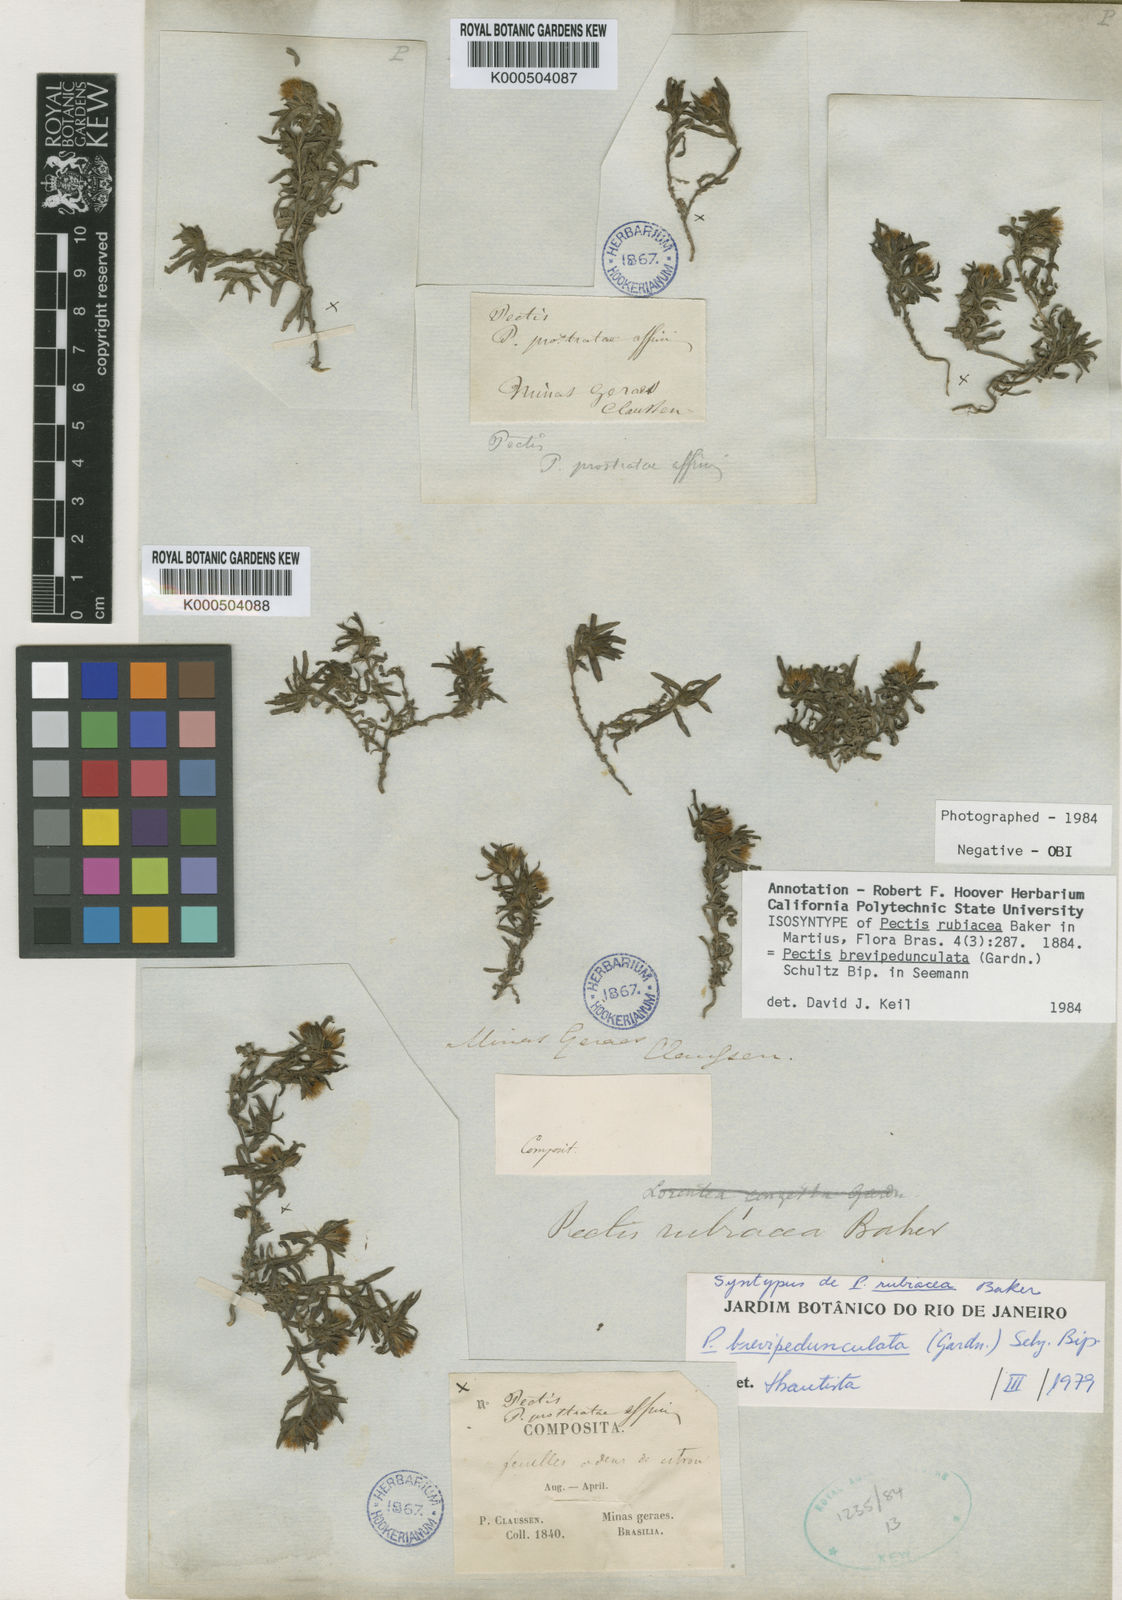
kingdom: Plantae
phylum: Tracheophyta
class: Magnoliopsida
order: Asterales
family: Asteraceae
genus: Pectis
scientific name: Pectis brevipedunculata
